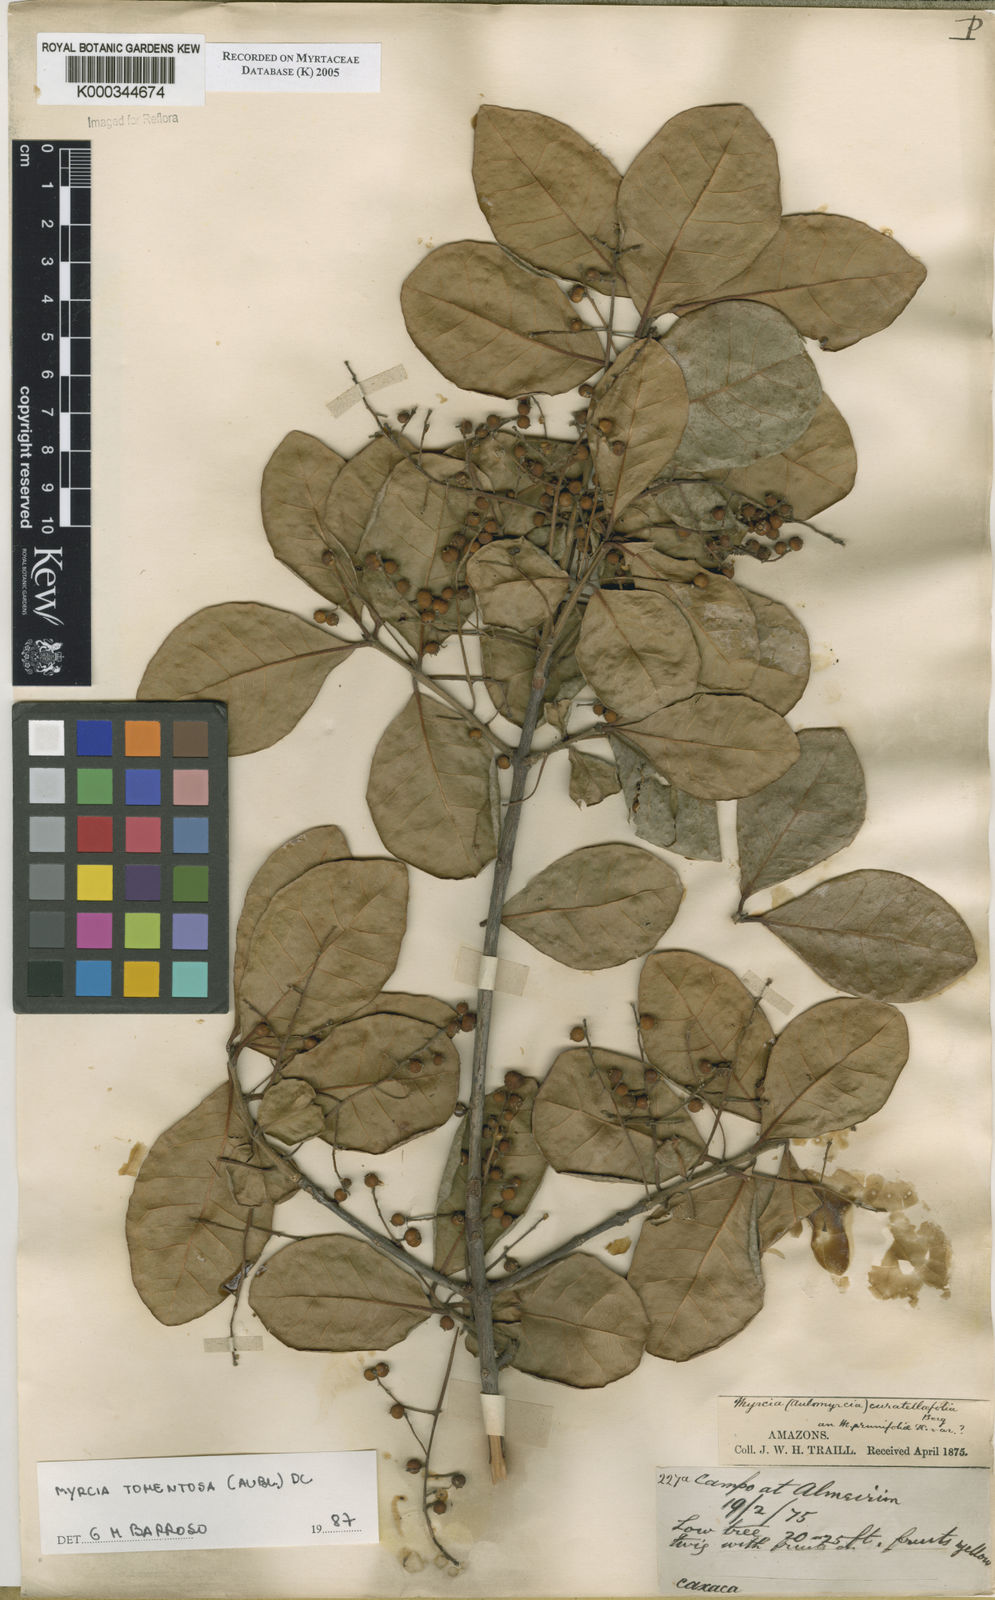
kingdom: Plantae
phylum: Tracheophyta
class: Magnoliopsida
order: Myrtales
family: Myrtaceae
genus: Myrcia
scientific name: Myrcia tomentosa
